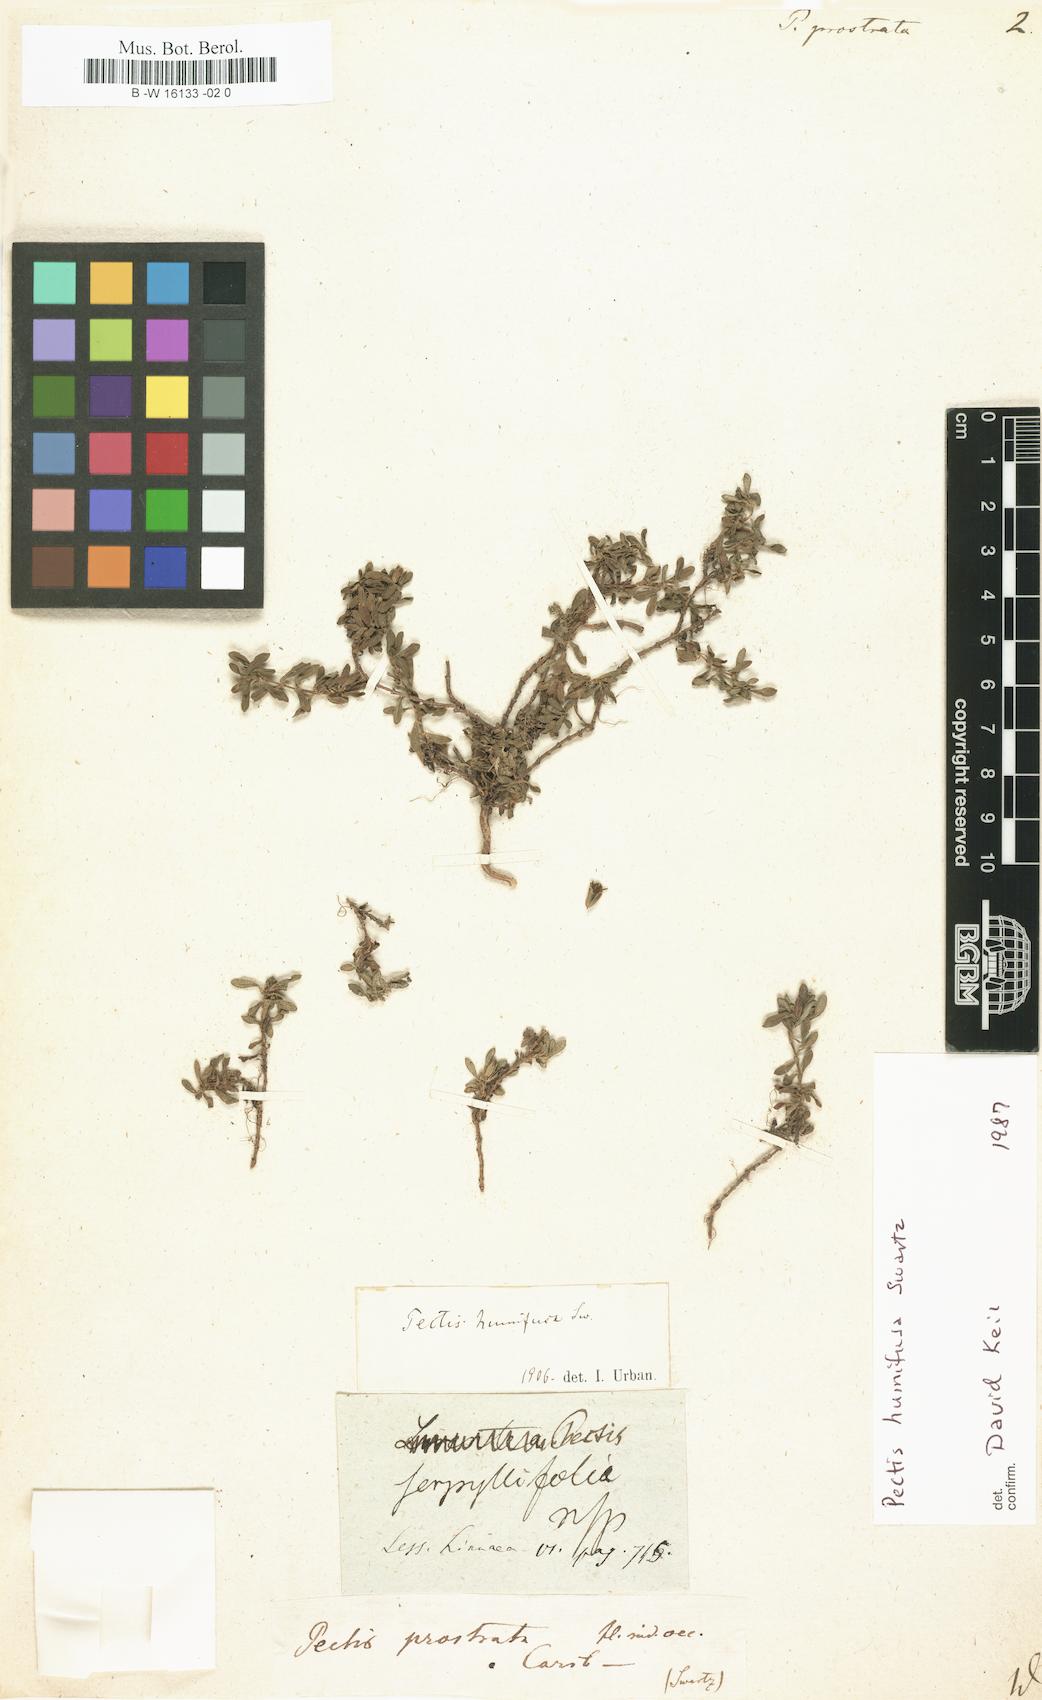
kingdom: Plantae
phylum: Tracheophyta
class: Magnoliopsida
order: Asterales
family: Asteraceae
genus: Pectis
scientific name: Pectis prostrata
